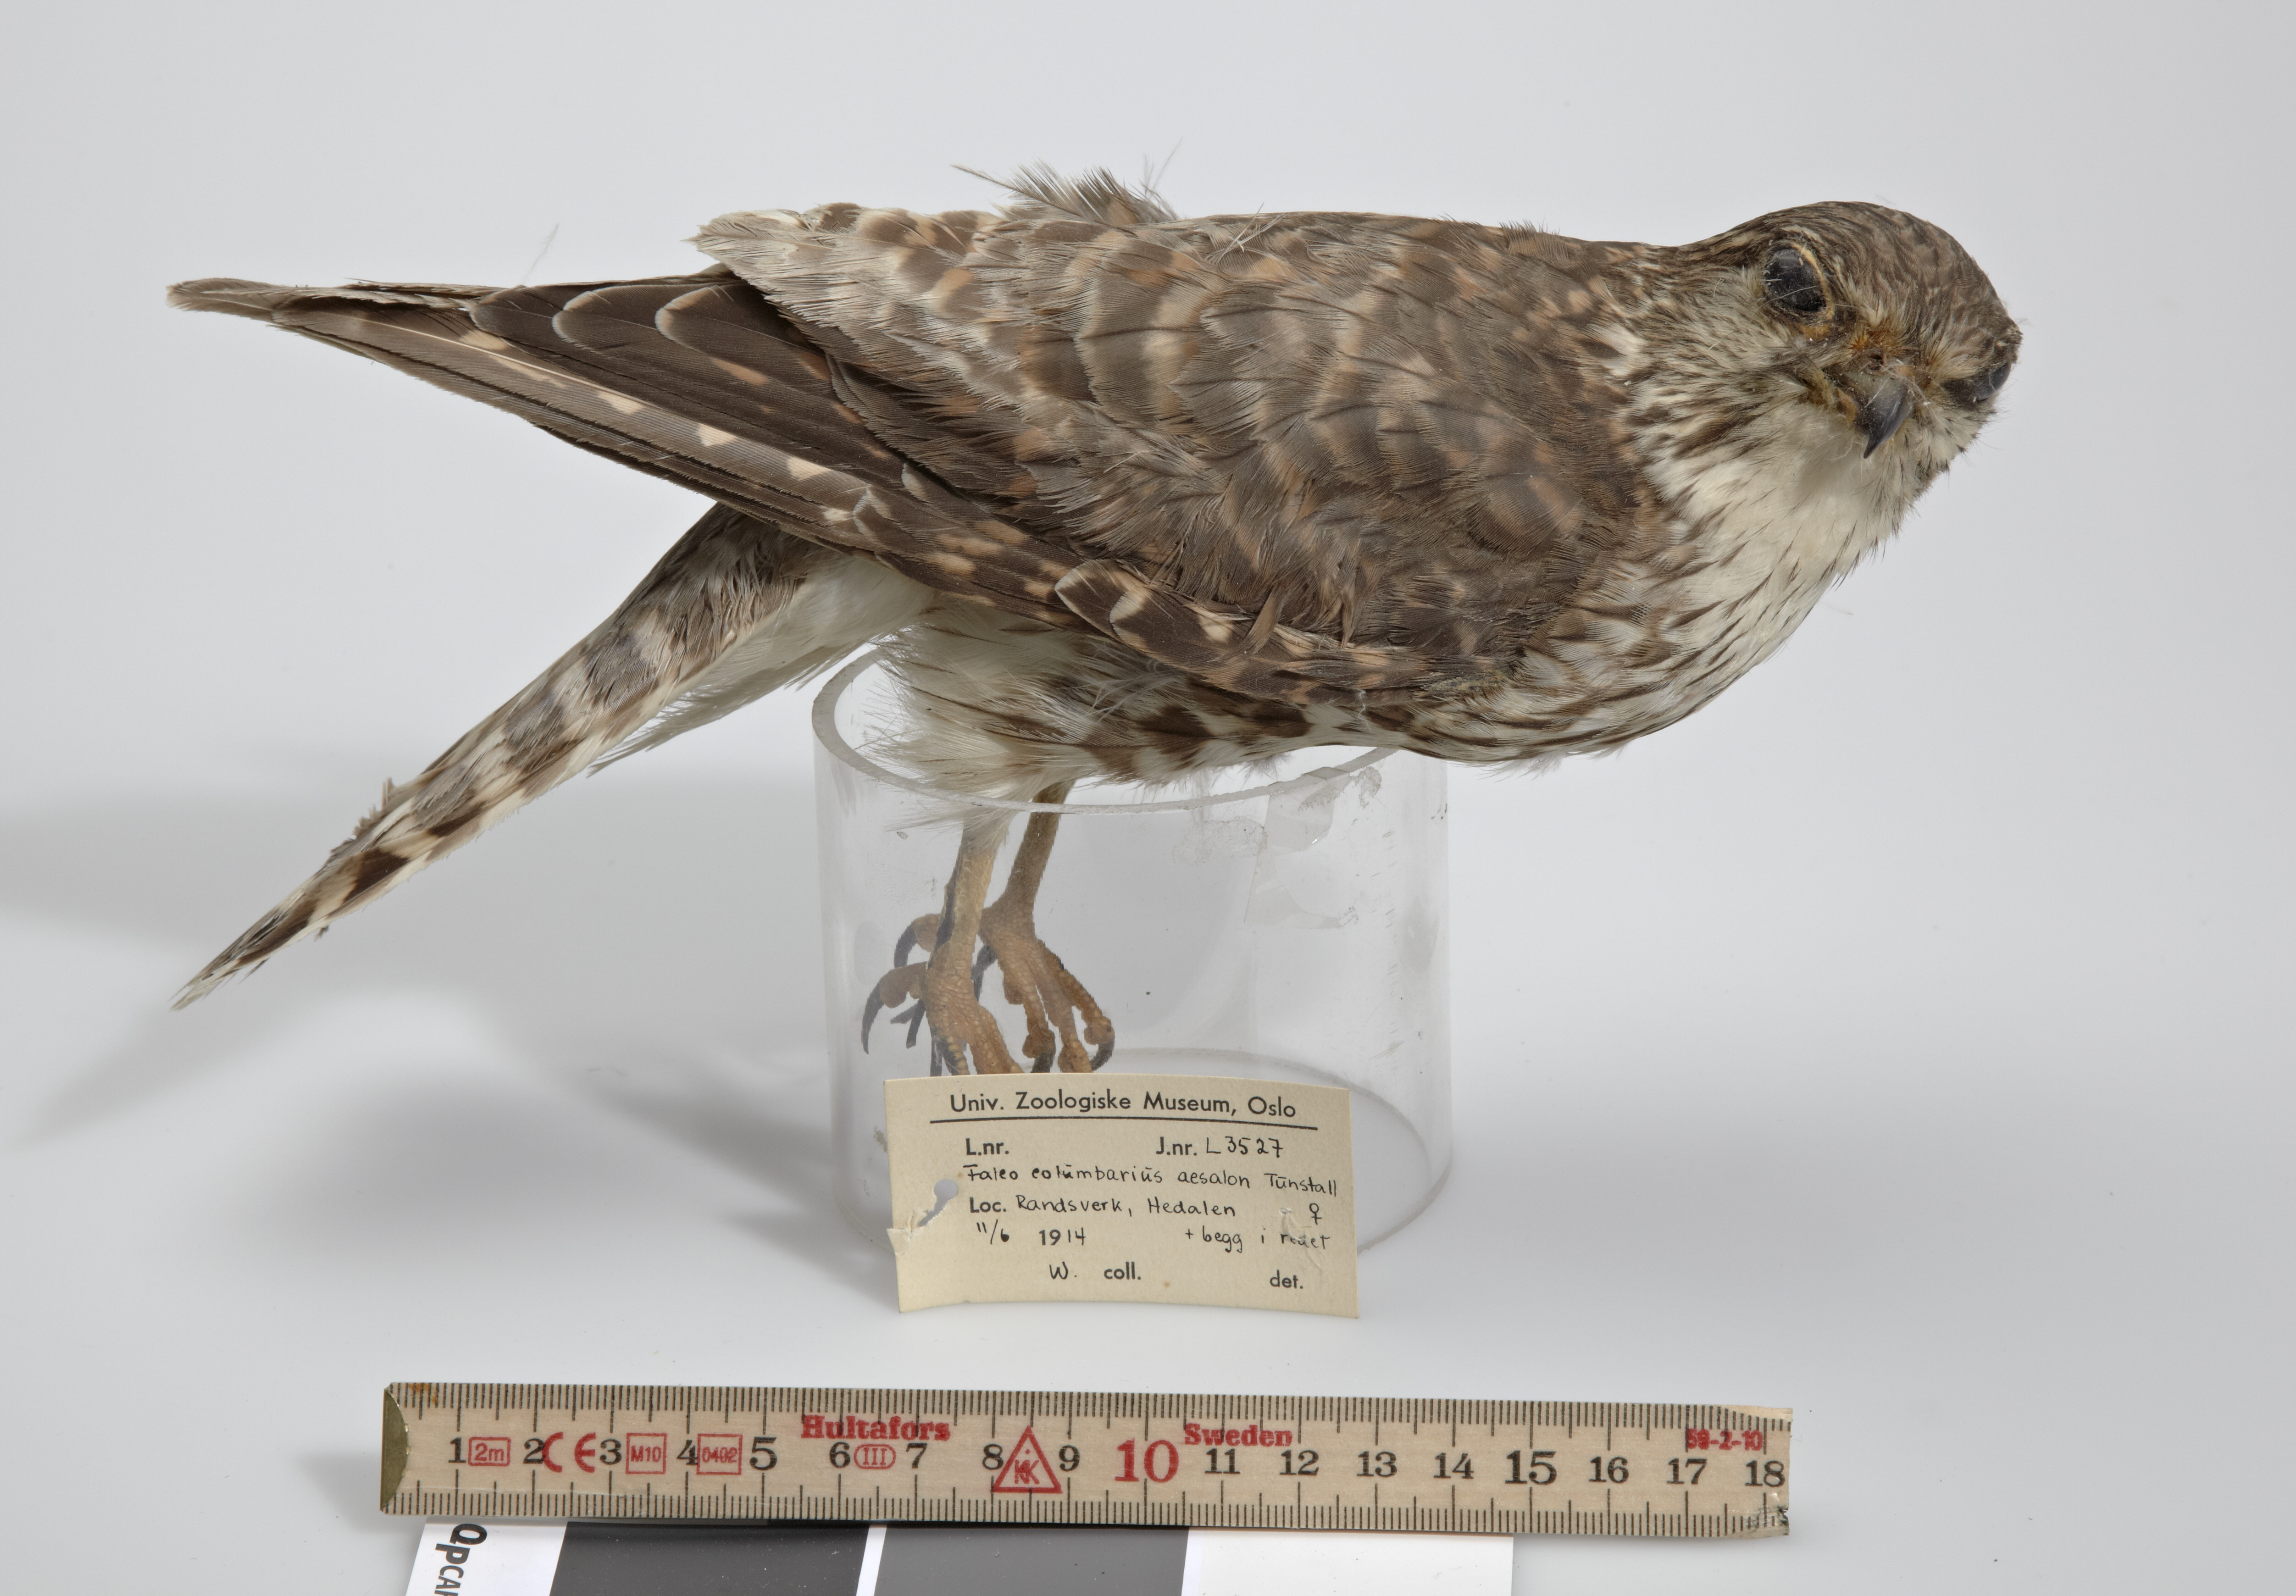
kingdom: Animalia
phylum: Chordata
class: Aves
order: Falconiformes
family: Falconidae
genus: Falco
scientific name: Falco columbarius
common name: Merlin
